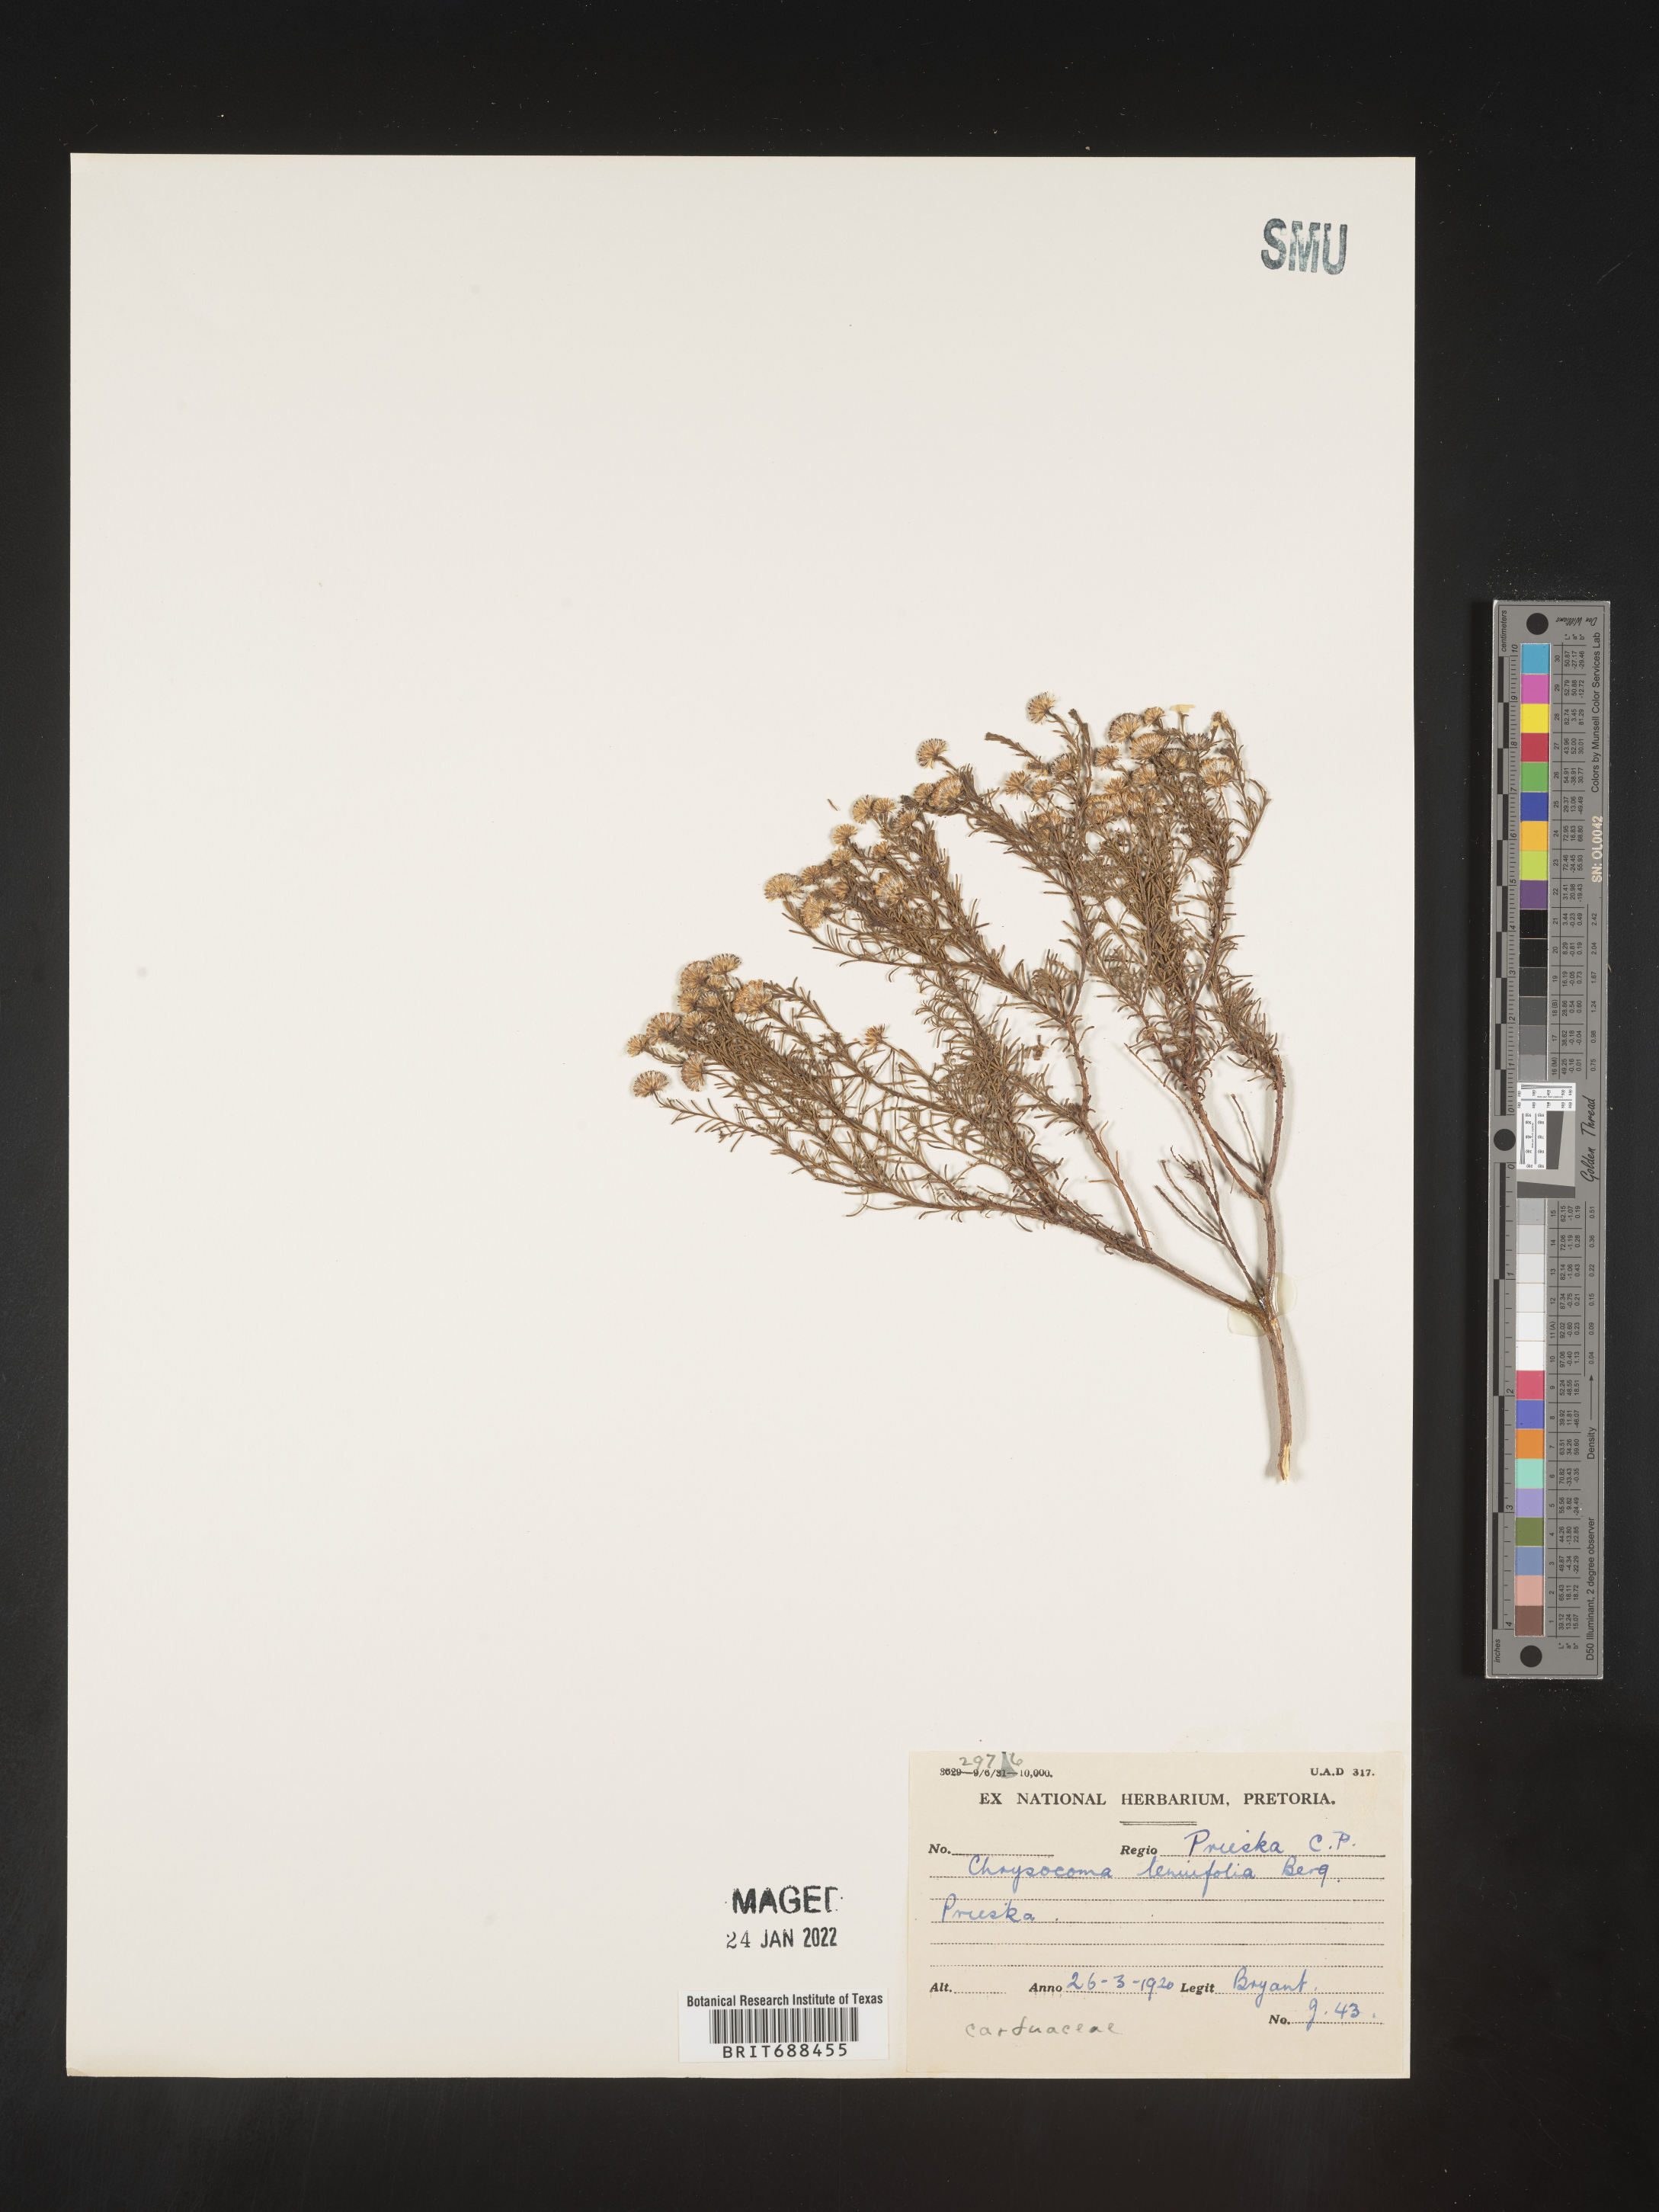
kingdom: Plantae
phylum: Tracheophyta
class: Magnoliopsida
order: Asterales
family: Asteraceae
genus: Chrysocoma
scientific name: Chrysocoma
